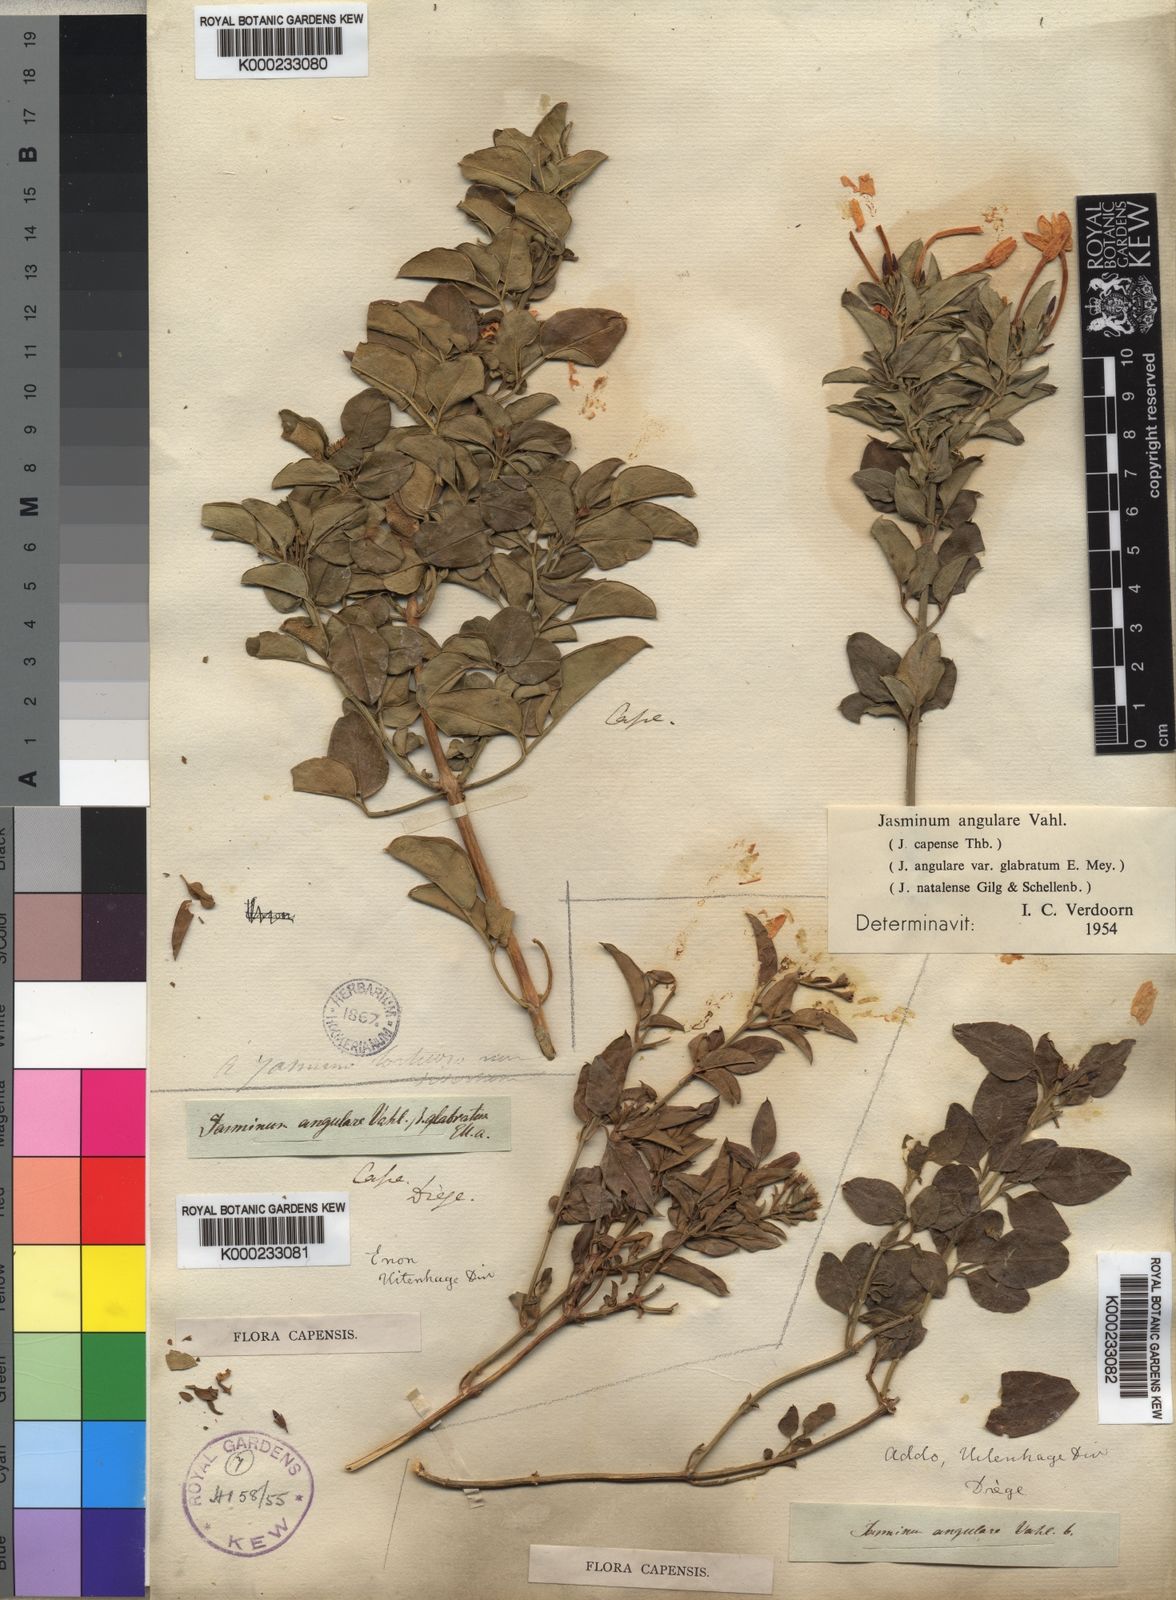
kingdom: Plantae
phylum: Tracheophyta
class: Magnoliopsida
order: Lamiales
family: Oleaceae
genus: Jasminum
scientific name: Jasminum angulare
